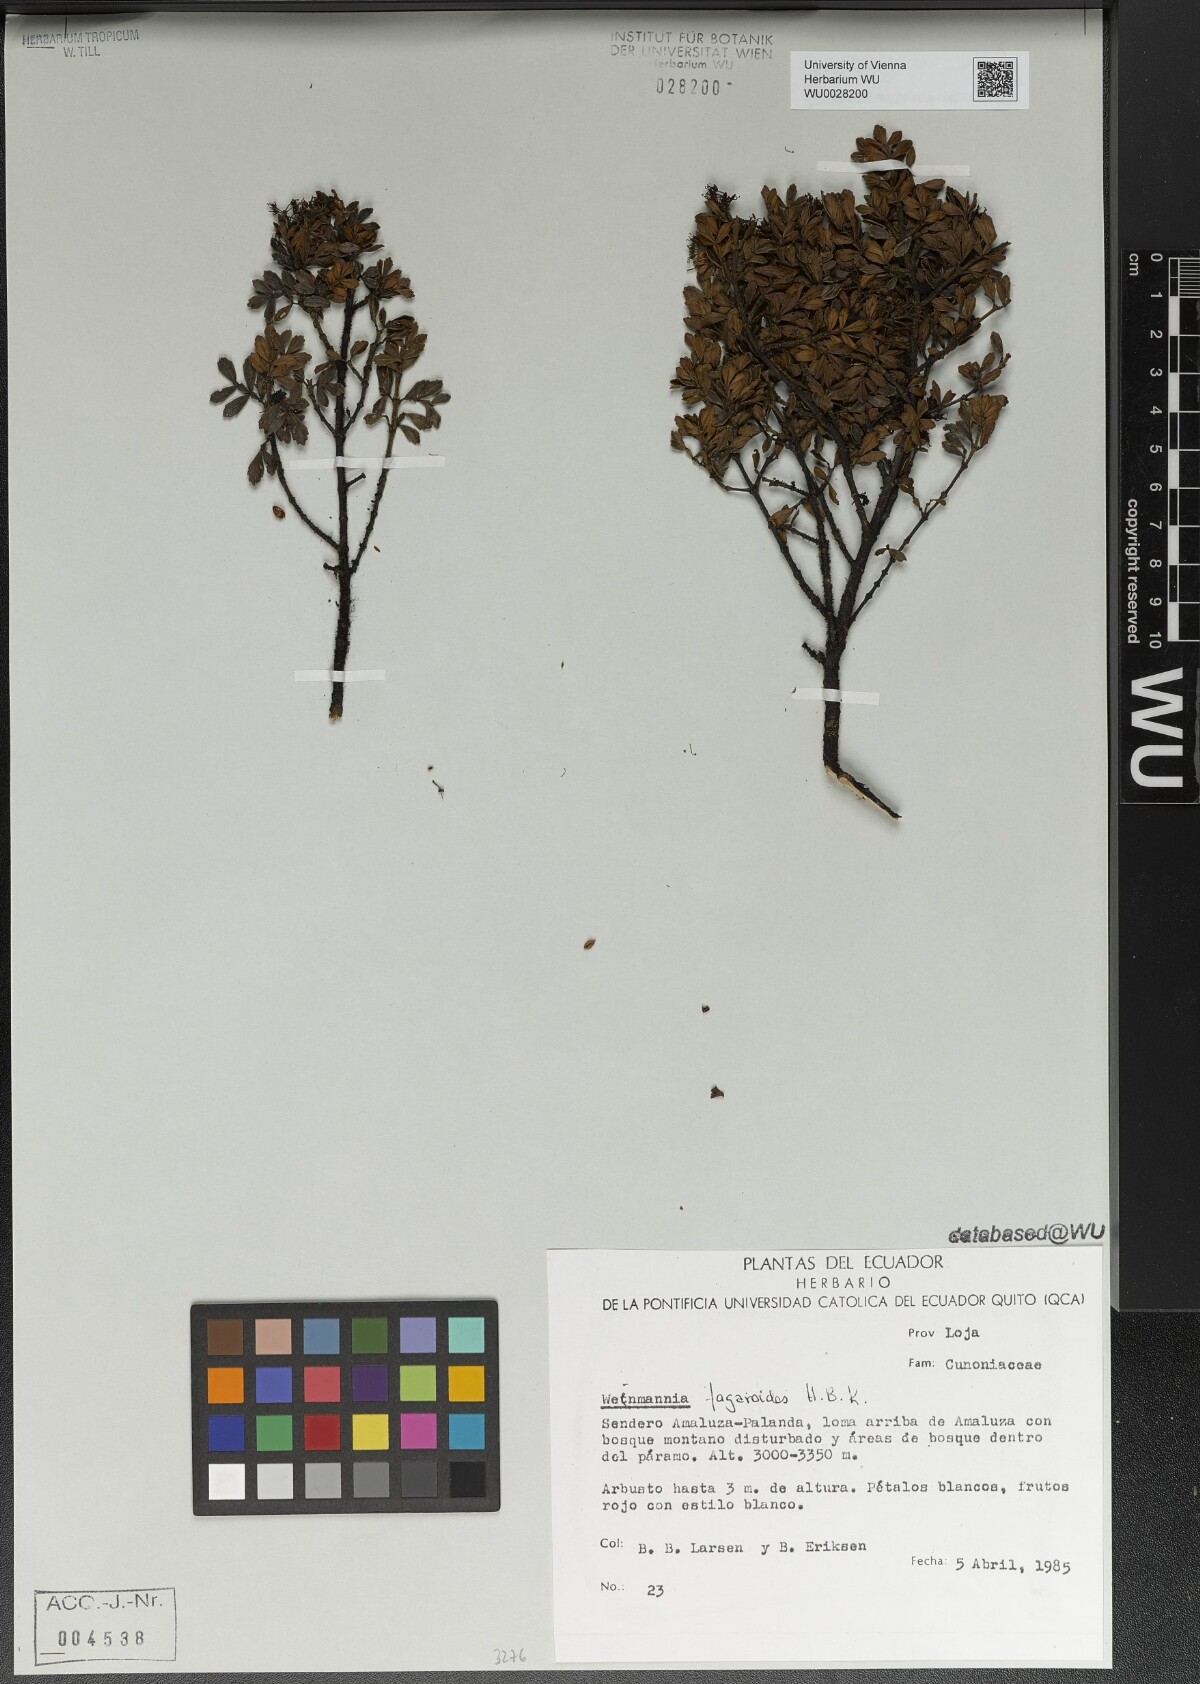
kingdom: Plantae
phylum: Tracheophyta
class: Magnoliopsida
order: Oxalidales
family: Cunoniaceae
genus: Weinmannia
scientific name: Weinmannia fagaroides
